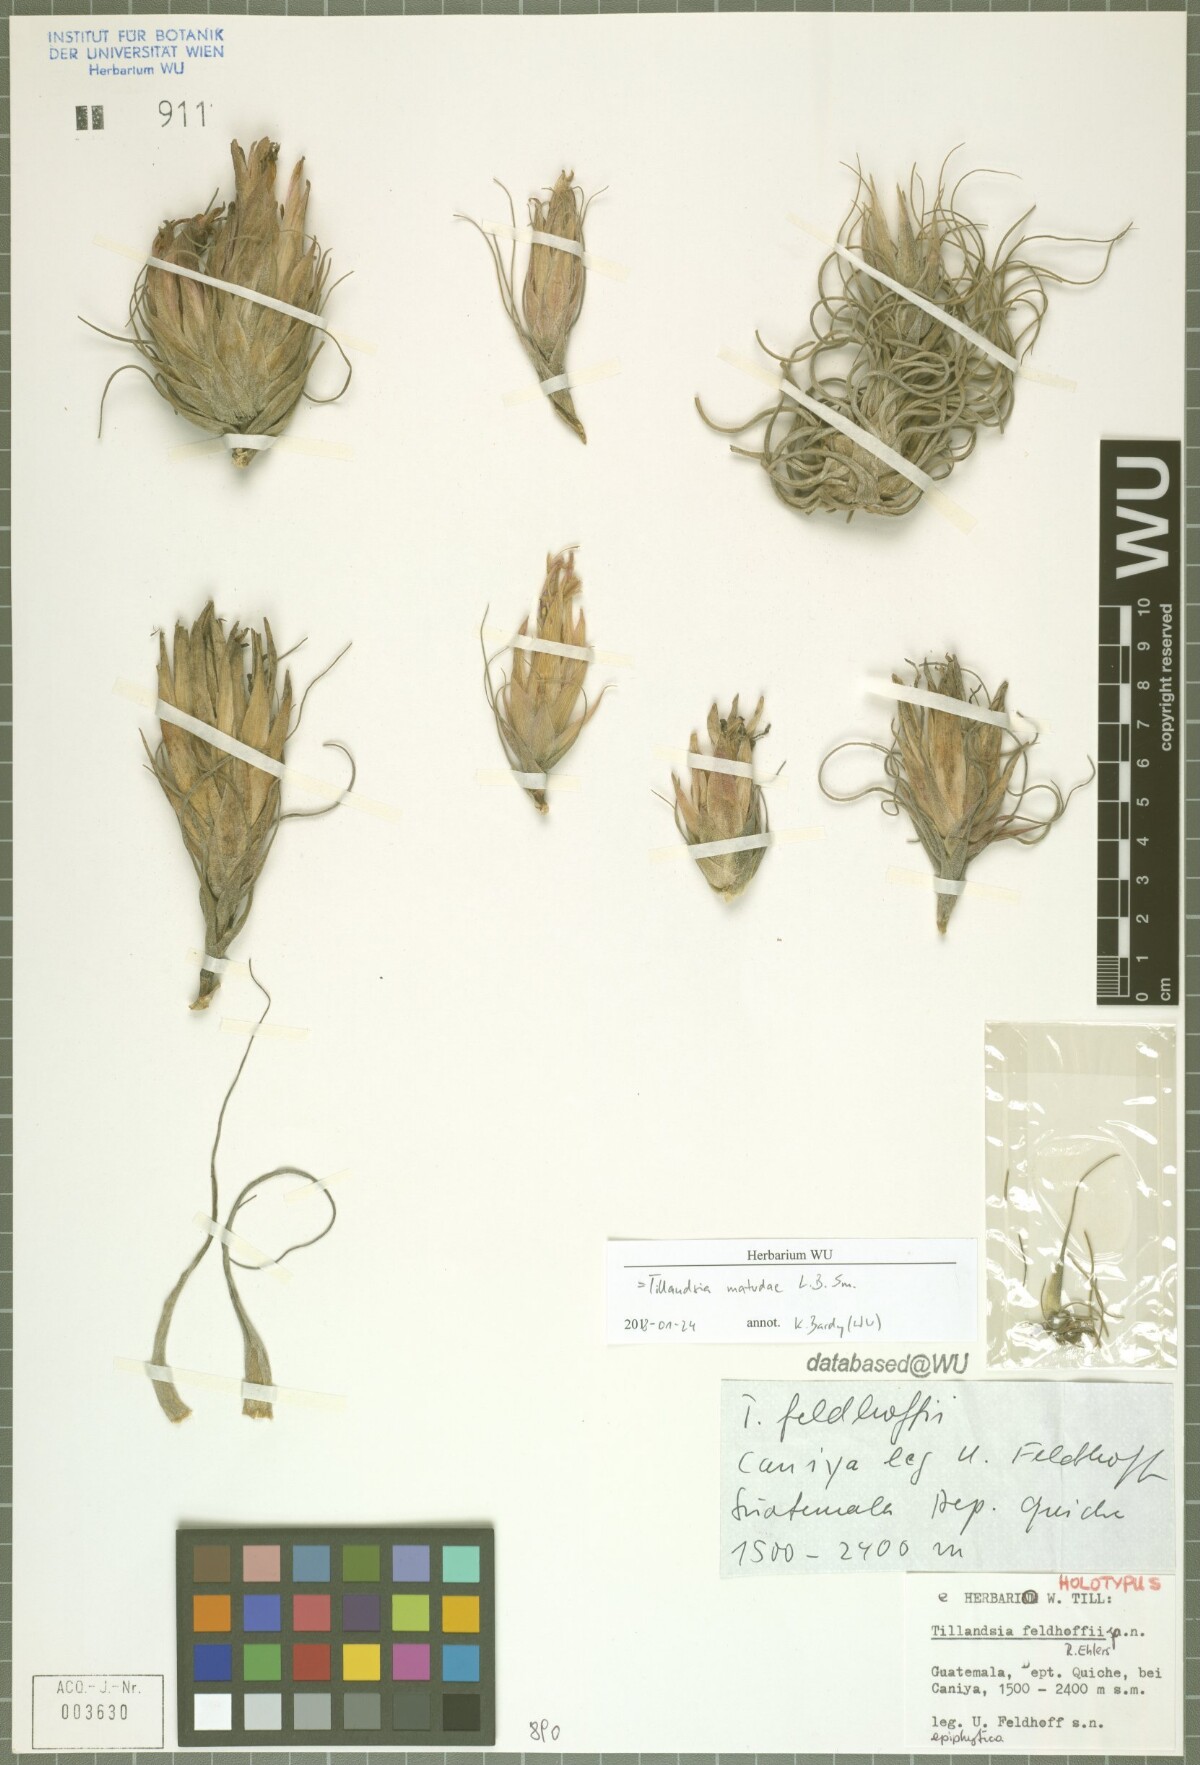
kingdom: Plantae
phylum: Tracheophyta
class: Liliopsida
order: Poales
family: Bromeliaceae
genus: Tillandsia
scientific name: Tillandsia matudae
